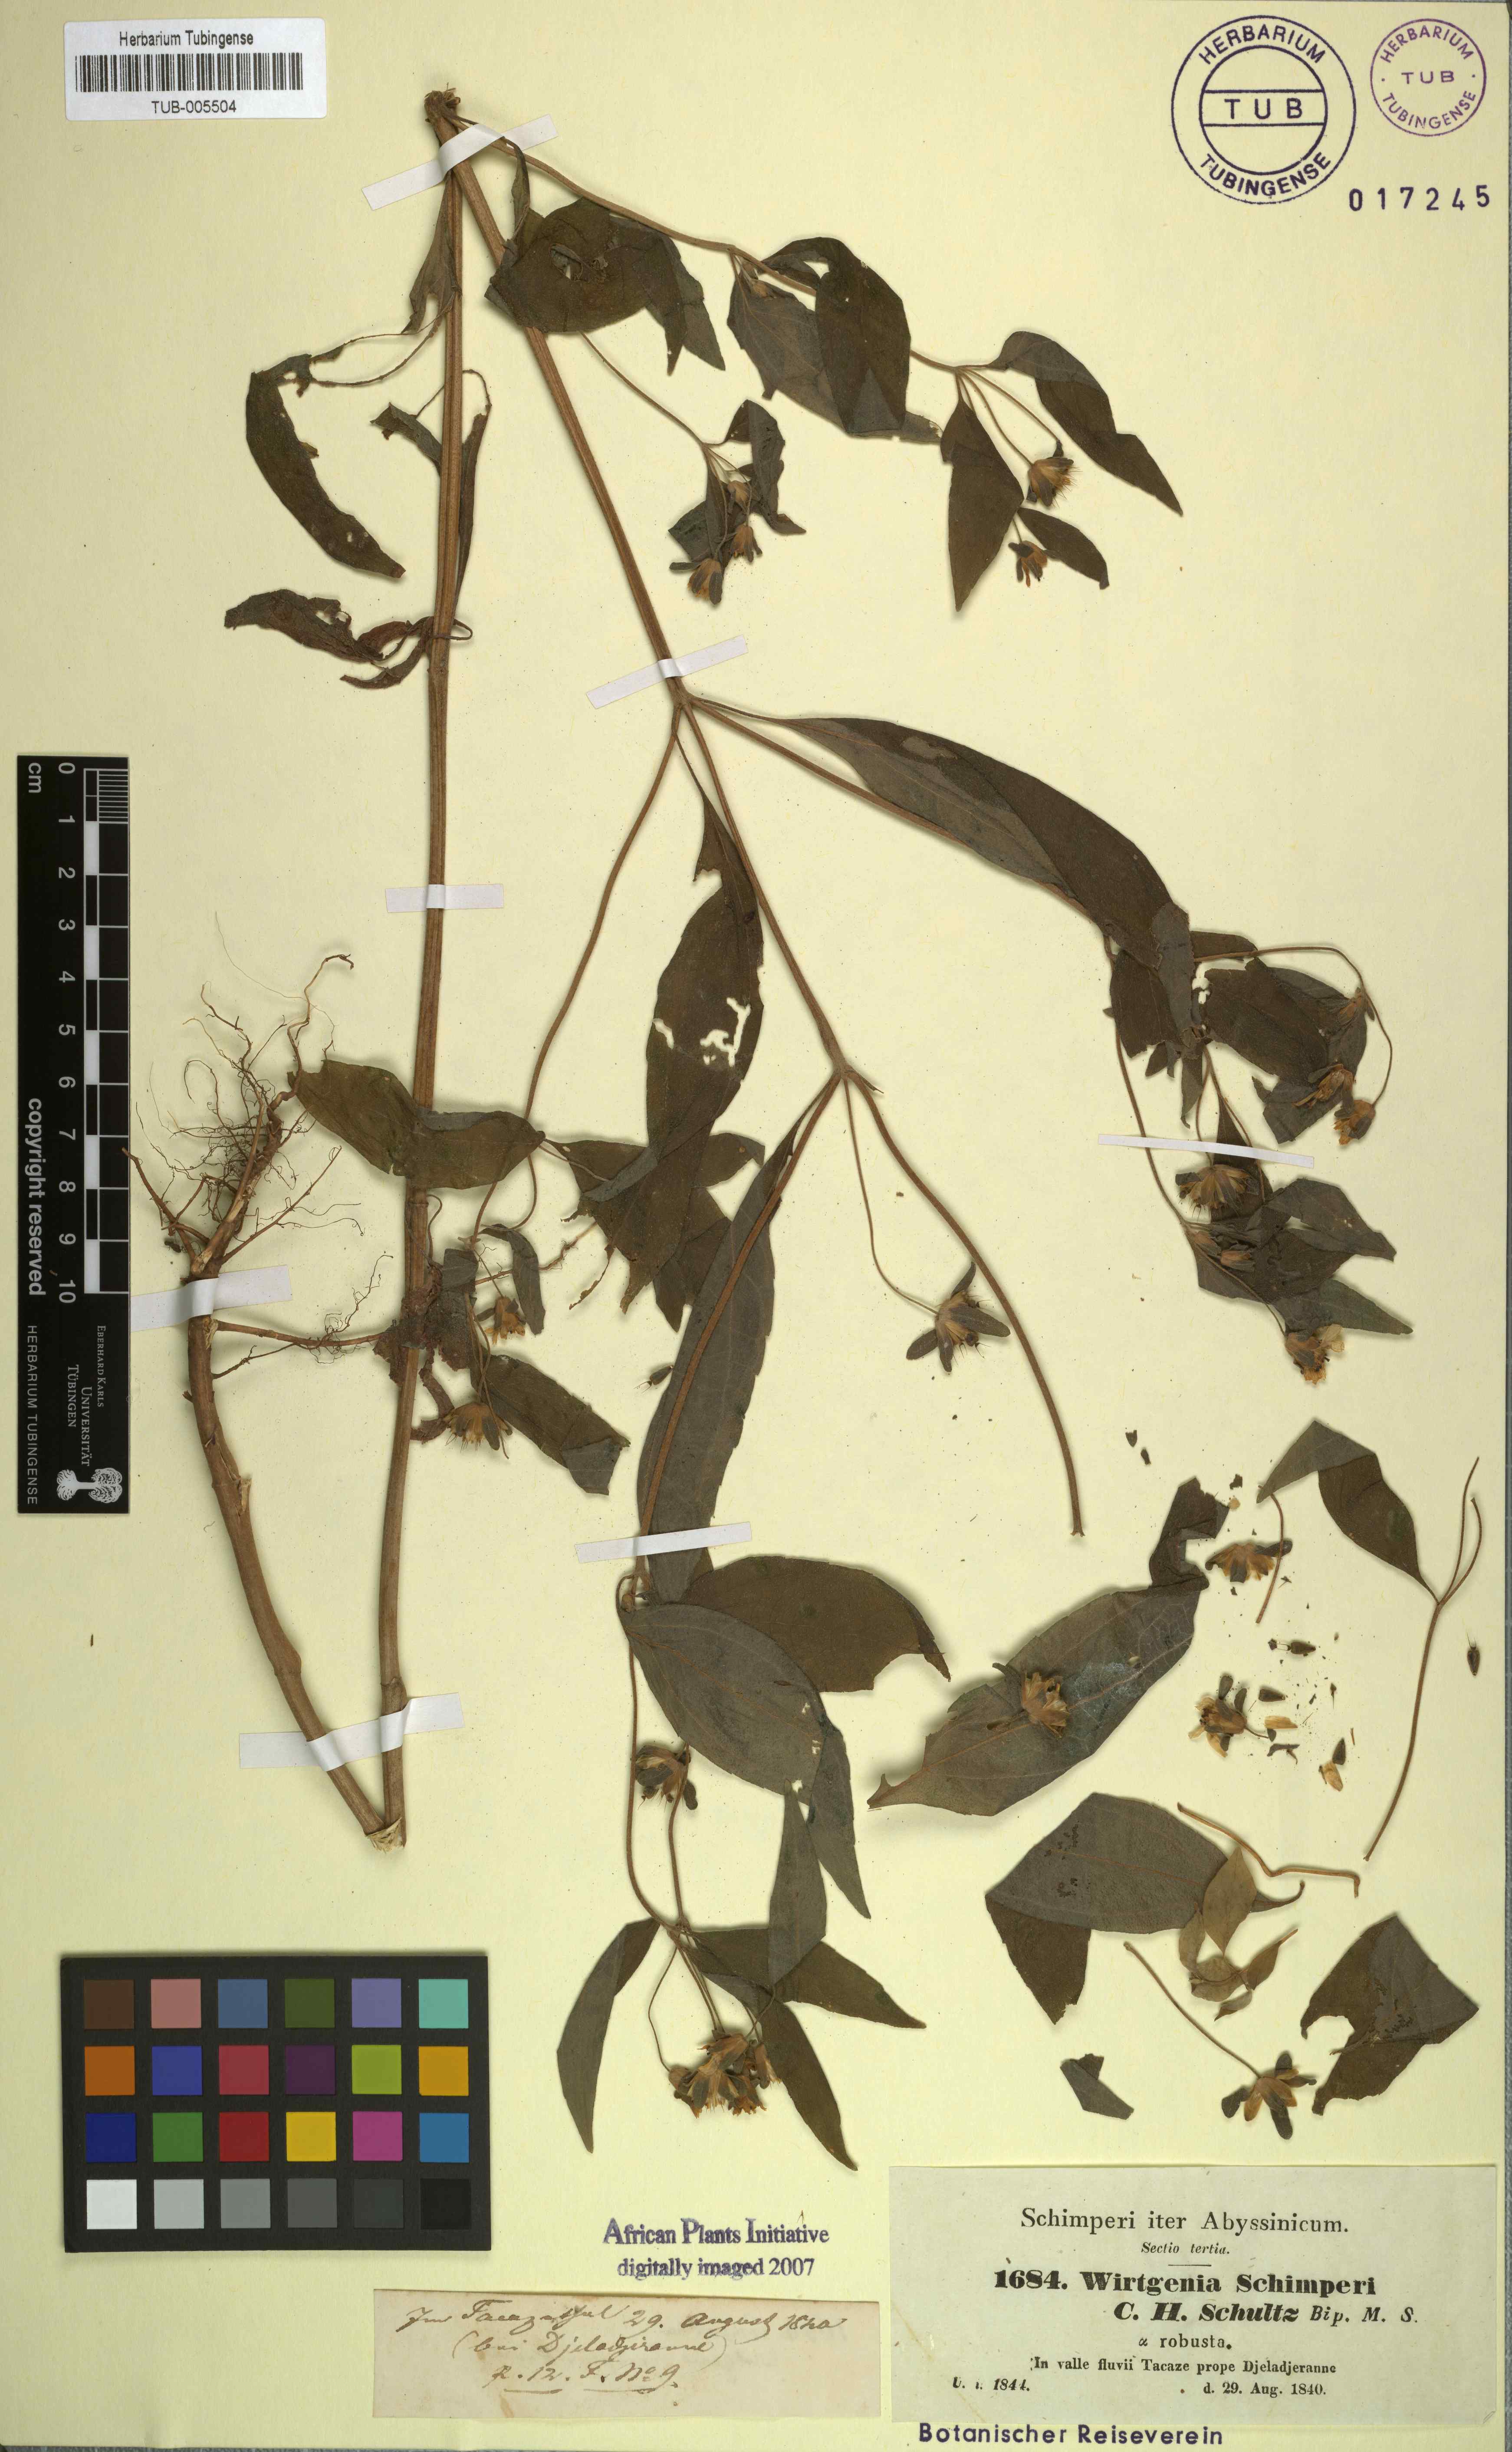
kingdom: Plantae
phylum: Tracheophyta
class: Magnoliopsida
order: Asterales
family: Asteraceae
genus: Aspilia
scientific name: Aspilia helianthoides
